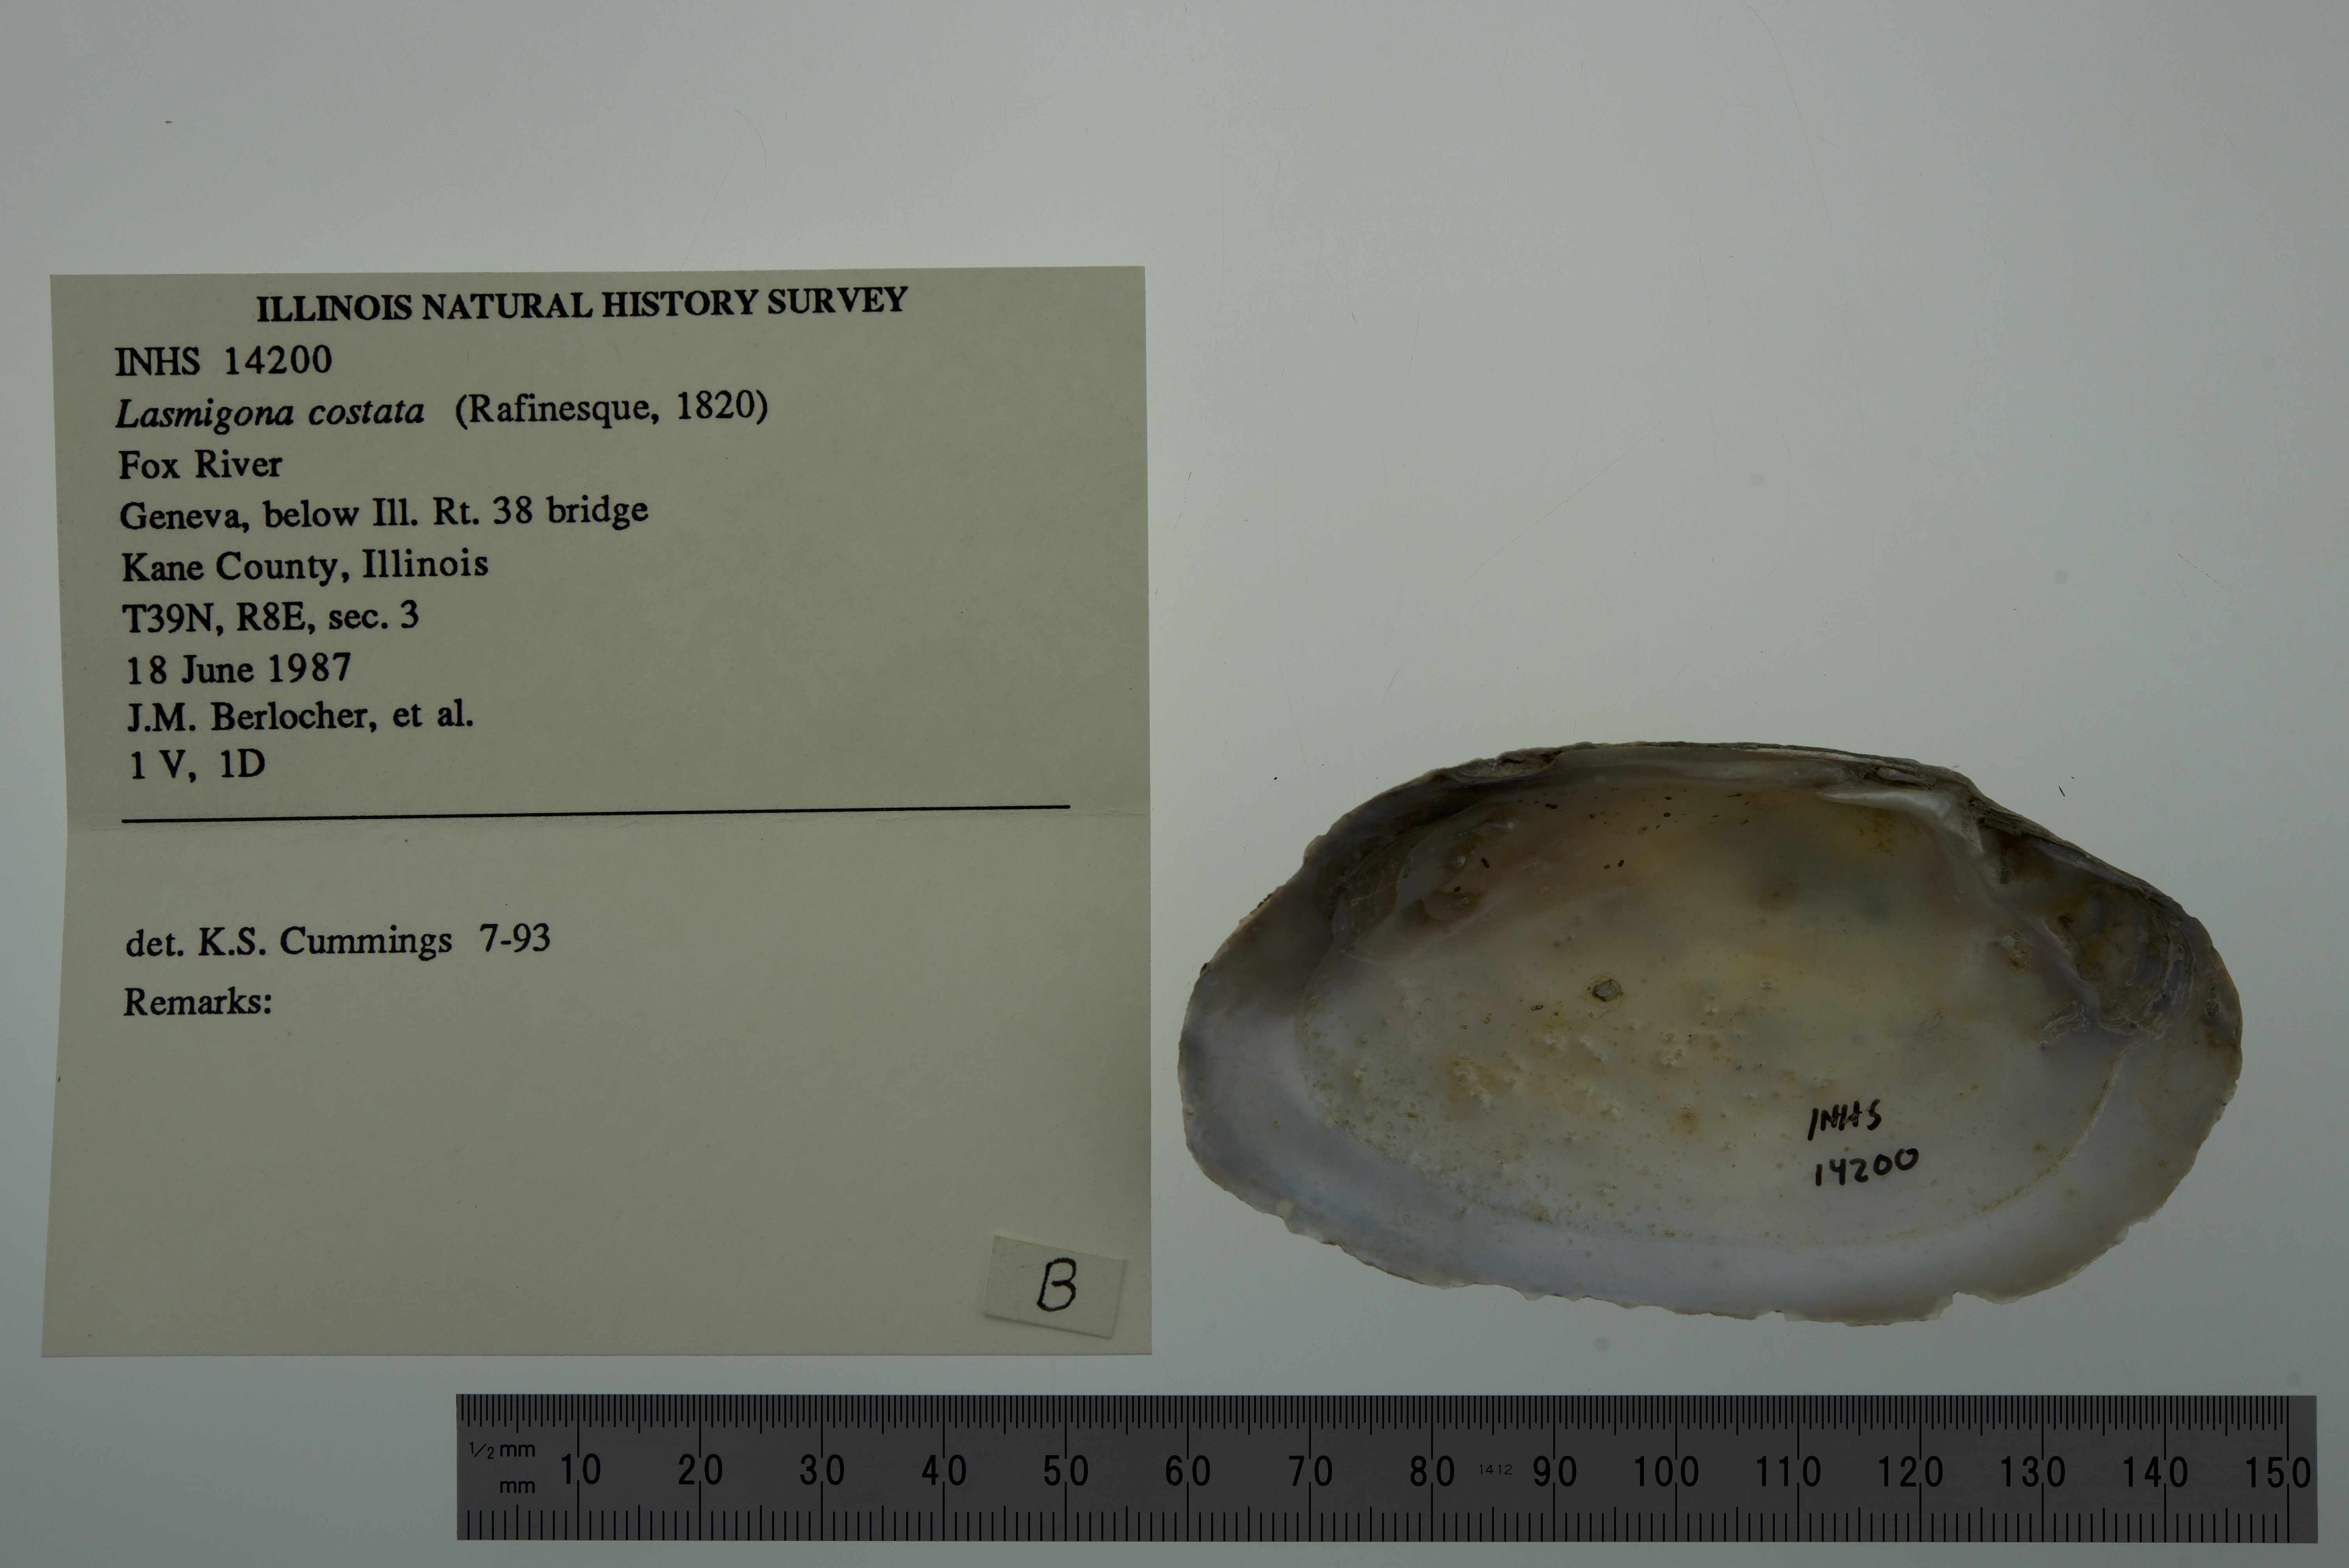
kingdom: Animalia
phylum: Mollusca
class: Bivalvia
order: Unionida
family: Unionidae
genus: Lasmigona
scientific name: Lasmigona costata
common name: Flutedshell
